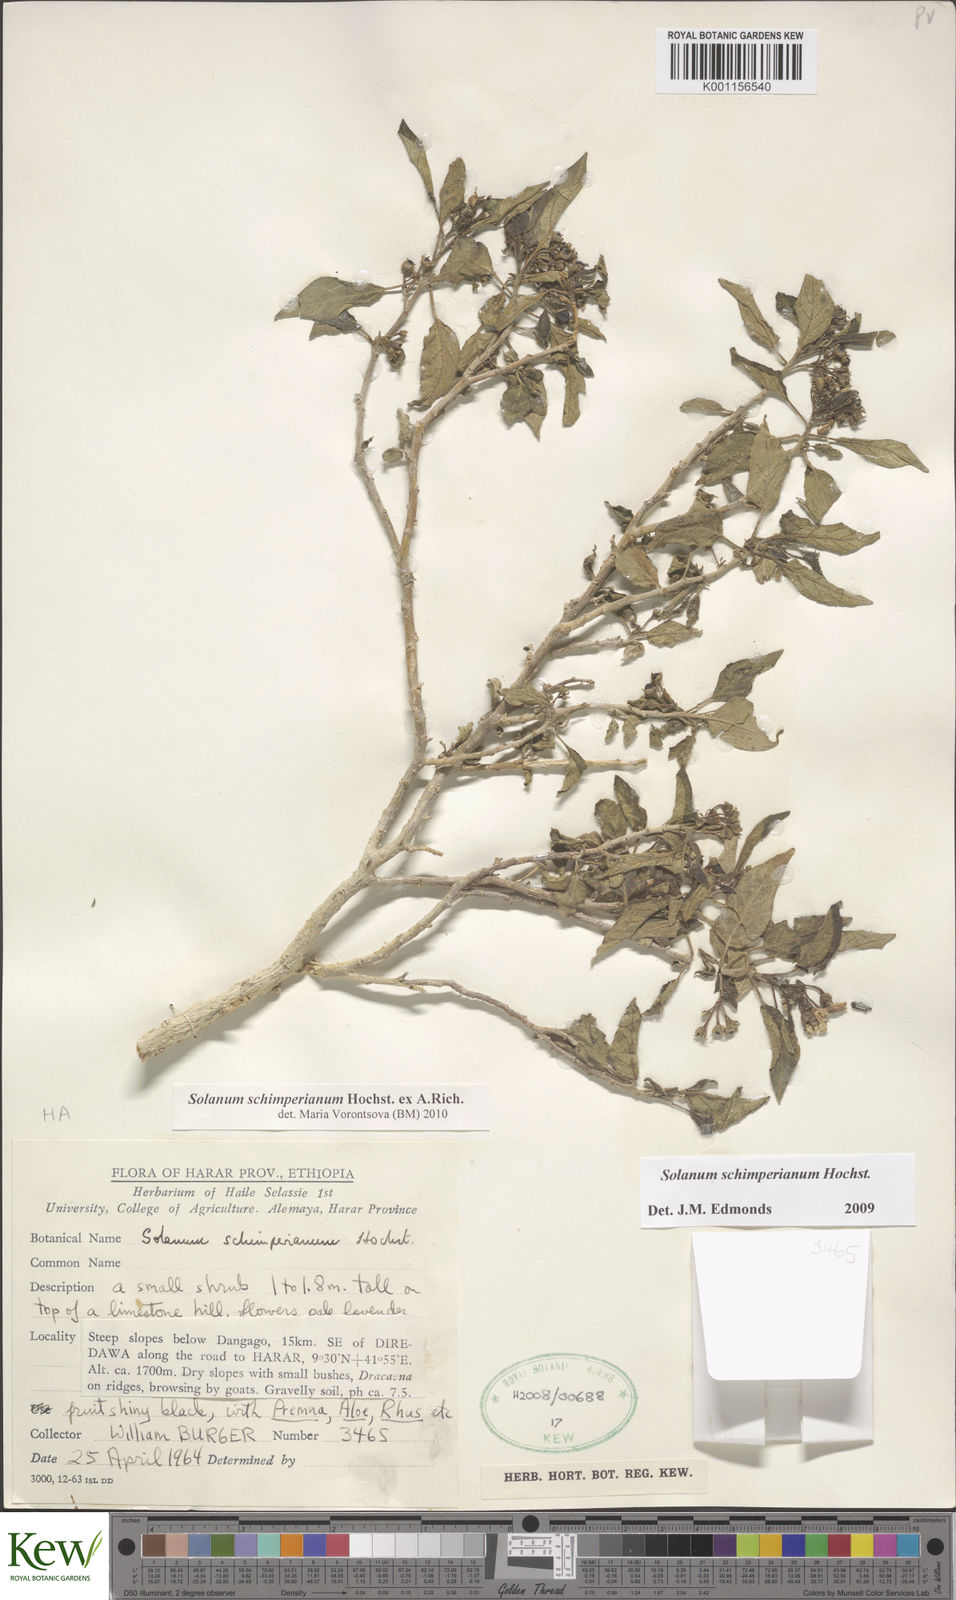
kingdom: Plantae
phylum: Tracheophyta
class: Magnoliopsida
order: Solanales
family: Solanaceae
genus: Solanum
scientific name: Solanum
